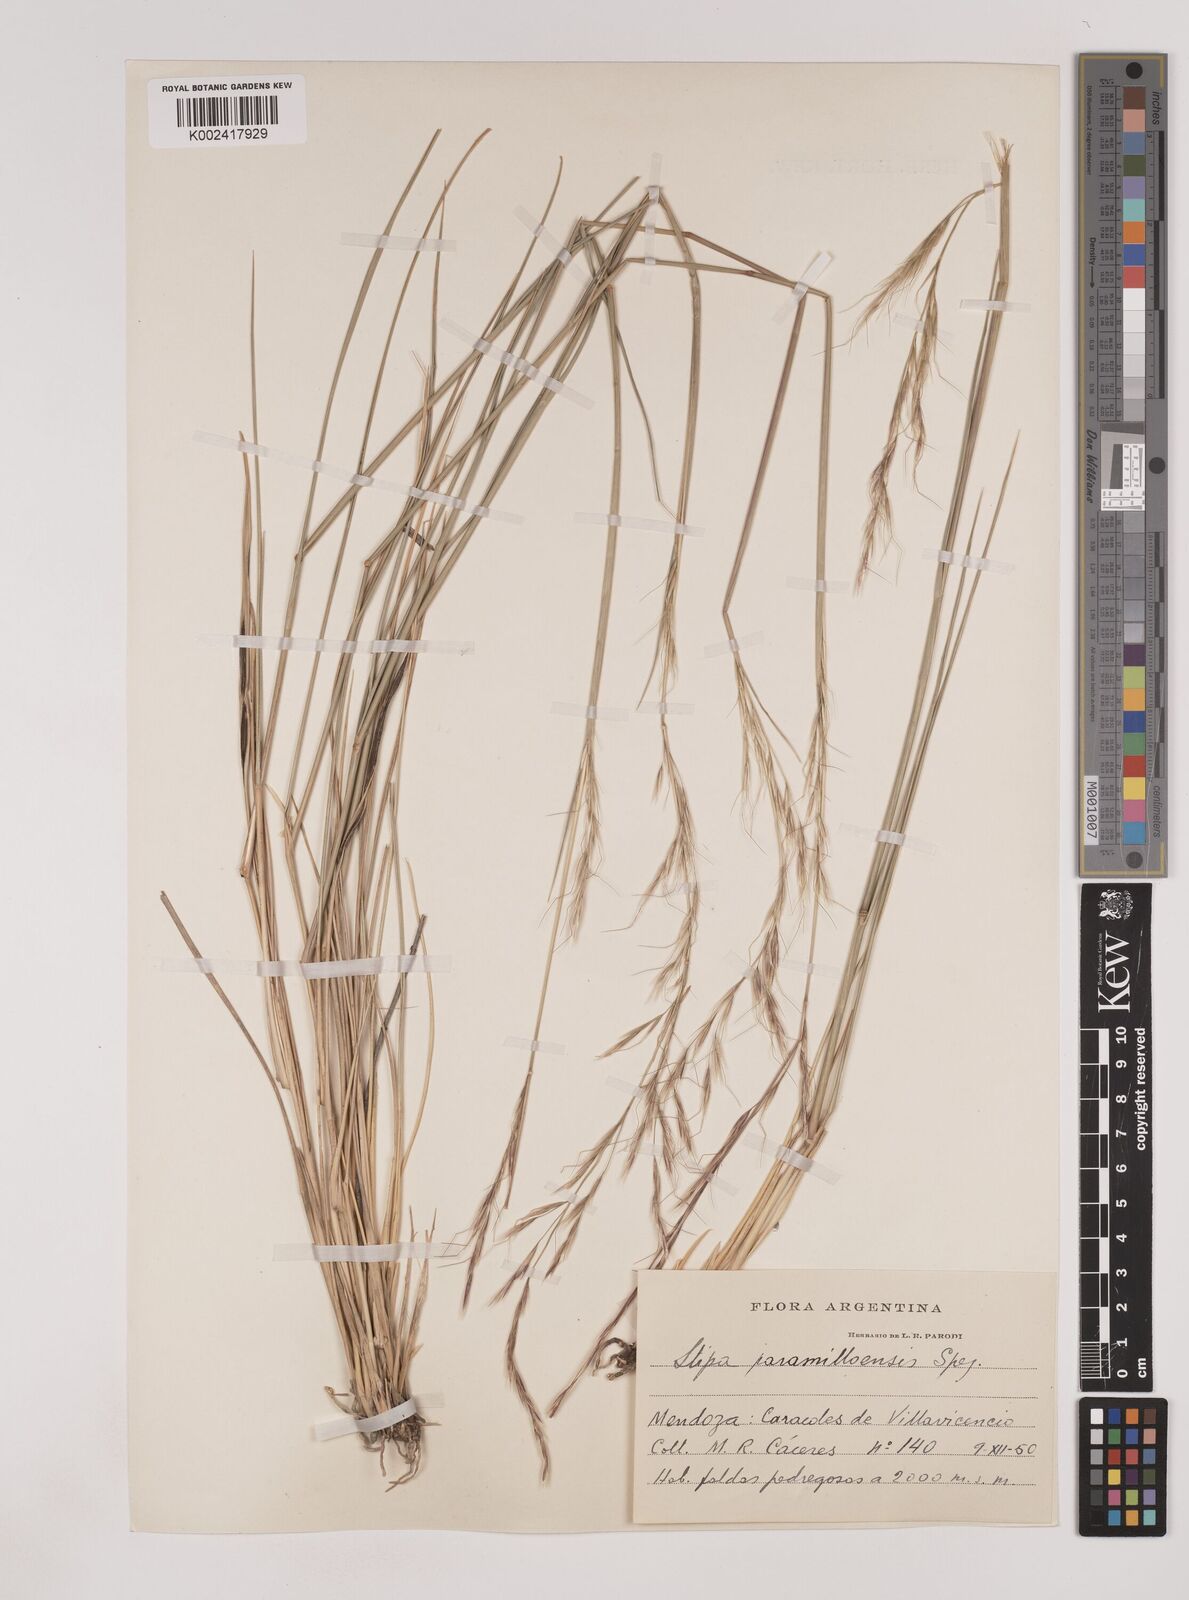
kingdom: Plantae
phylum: Tracheophyta
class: Liliopsida
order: Poales
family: Poaceae
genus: Nassella
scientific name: Nassella paramilloensis
